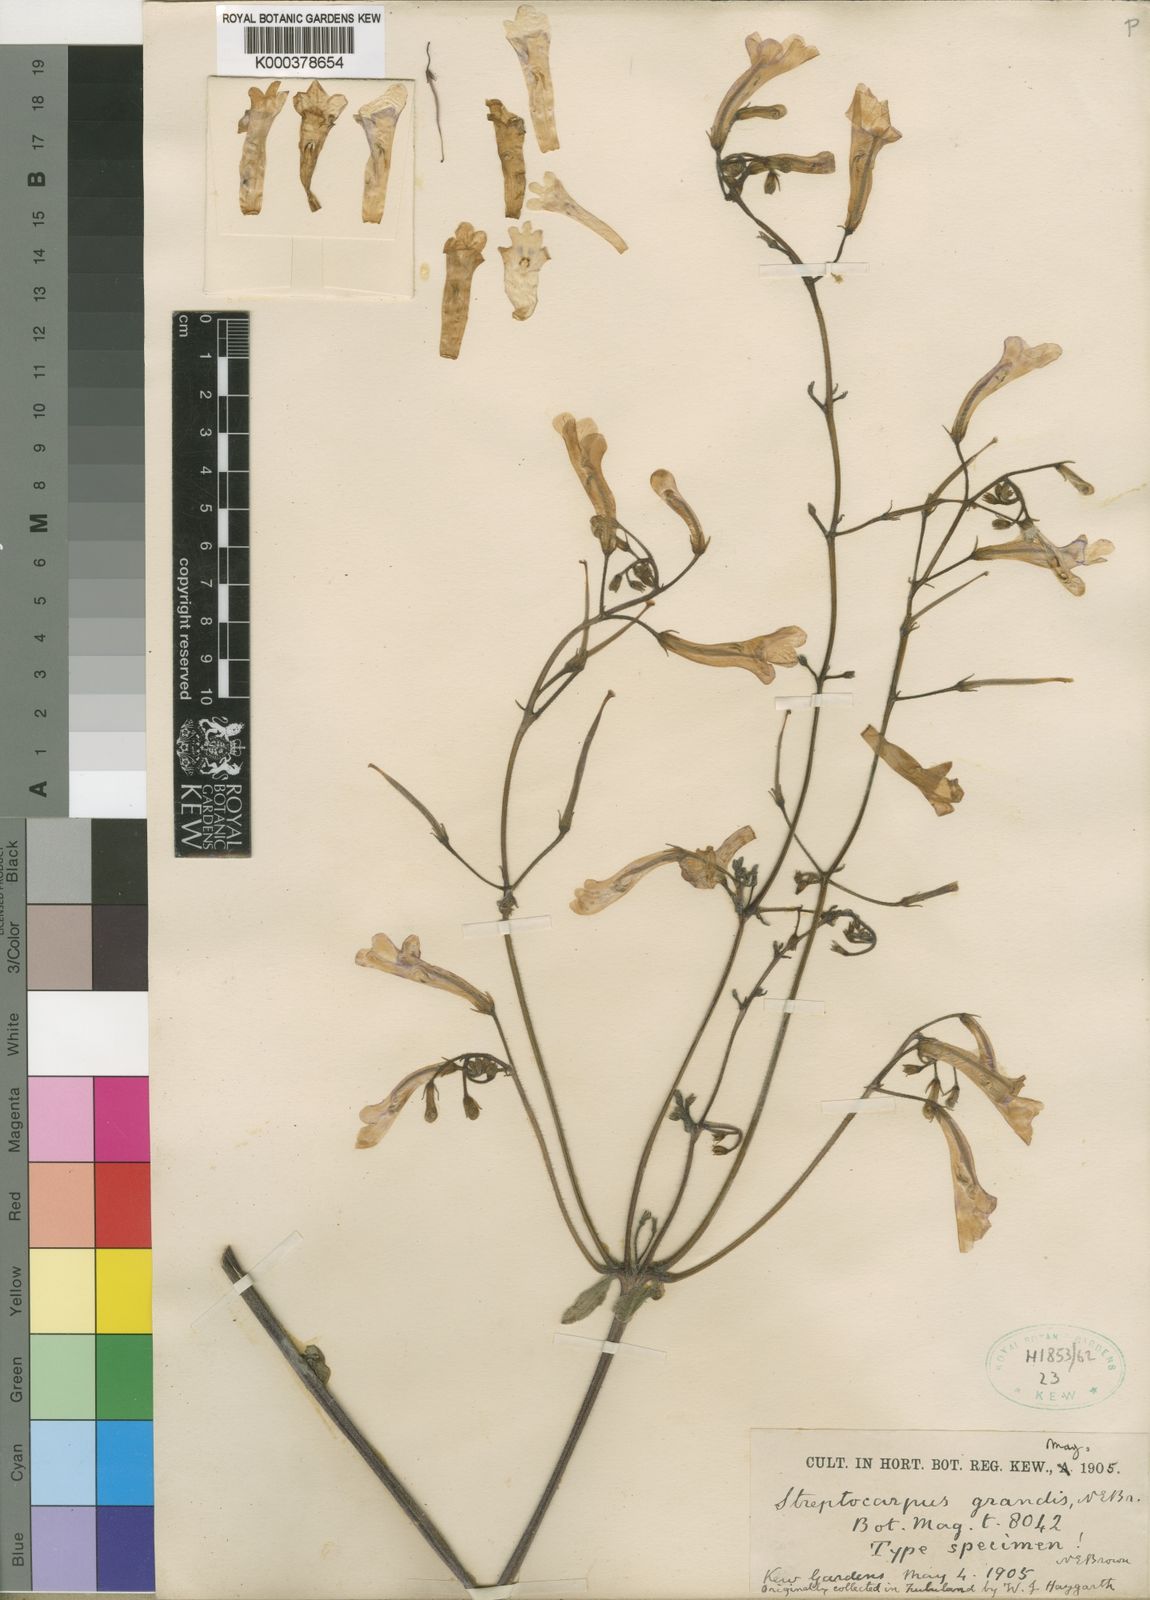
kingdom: Plantae
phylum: Tracheophyta
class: Magnoliopsida
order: Lamiales
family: Gesneriaceae
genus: Streptocarpus
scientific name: Streptocarpus grandis
